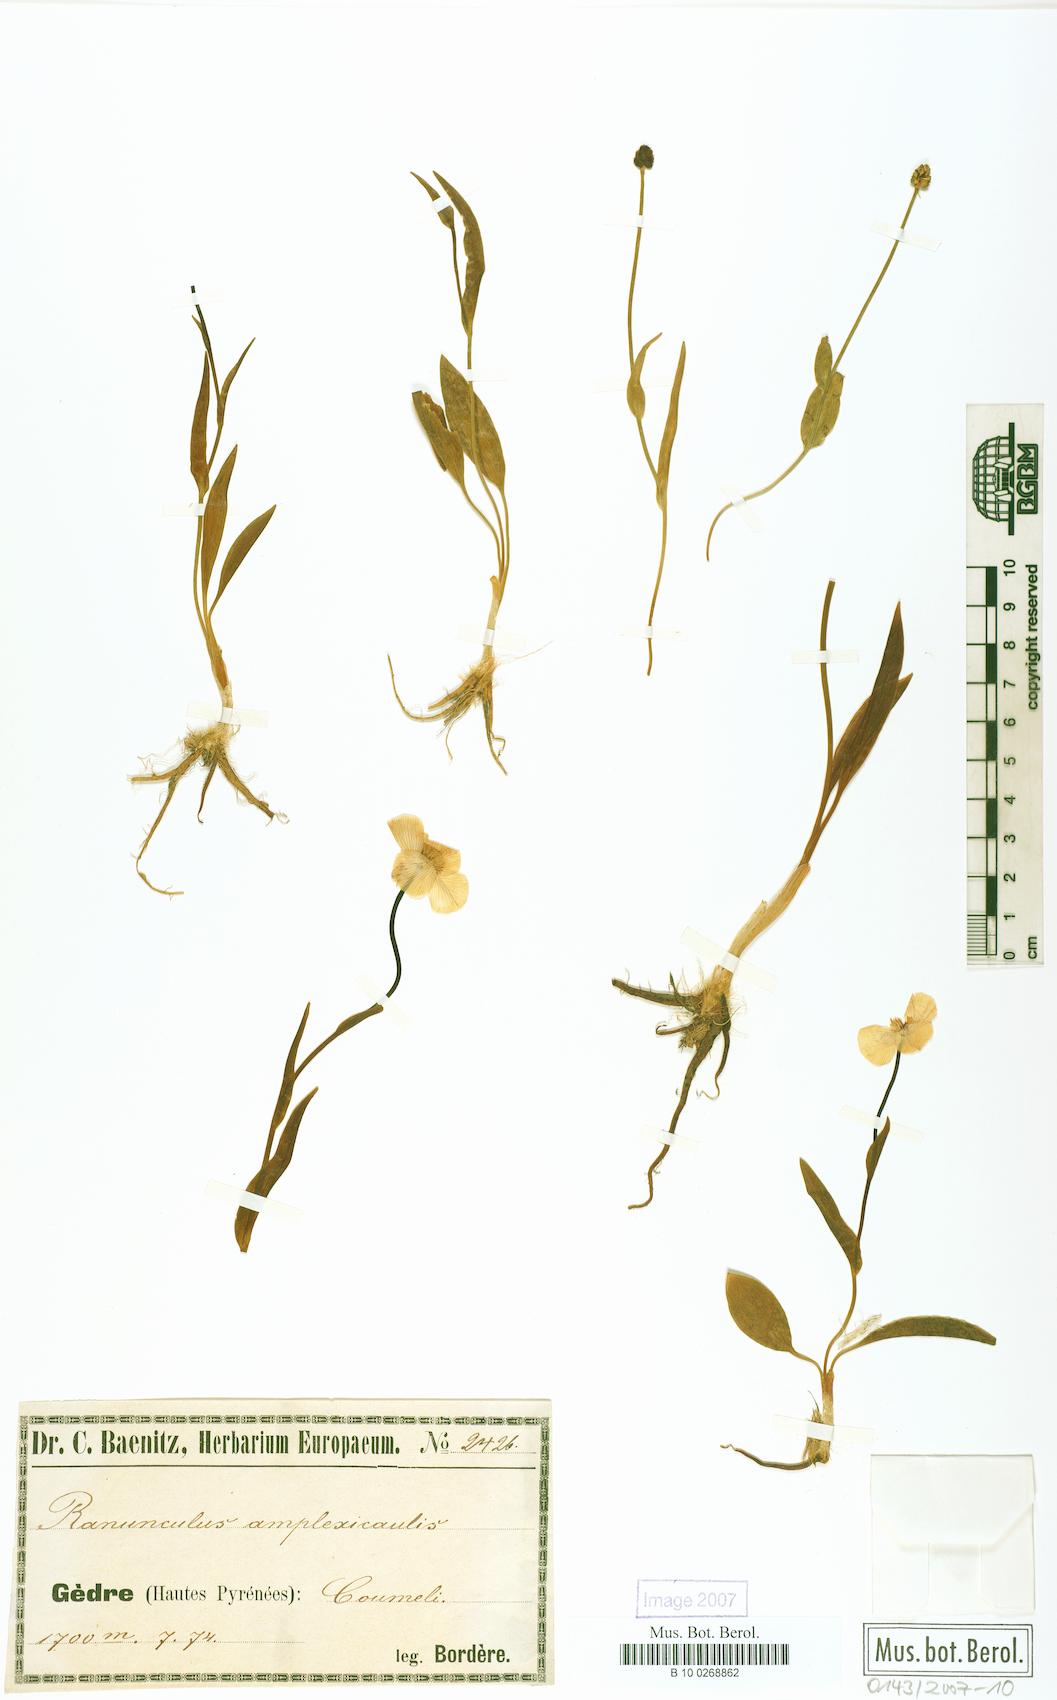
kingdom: Plantae
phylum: Tracheophyta
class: Magnoliopsida
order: Ranunculales
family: Ranunculaceae
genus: Ranunculus
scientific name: Ranunculus amplexicaulis
